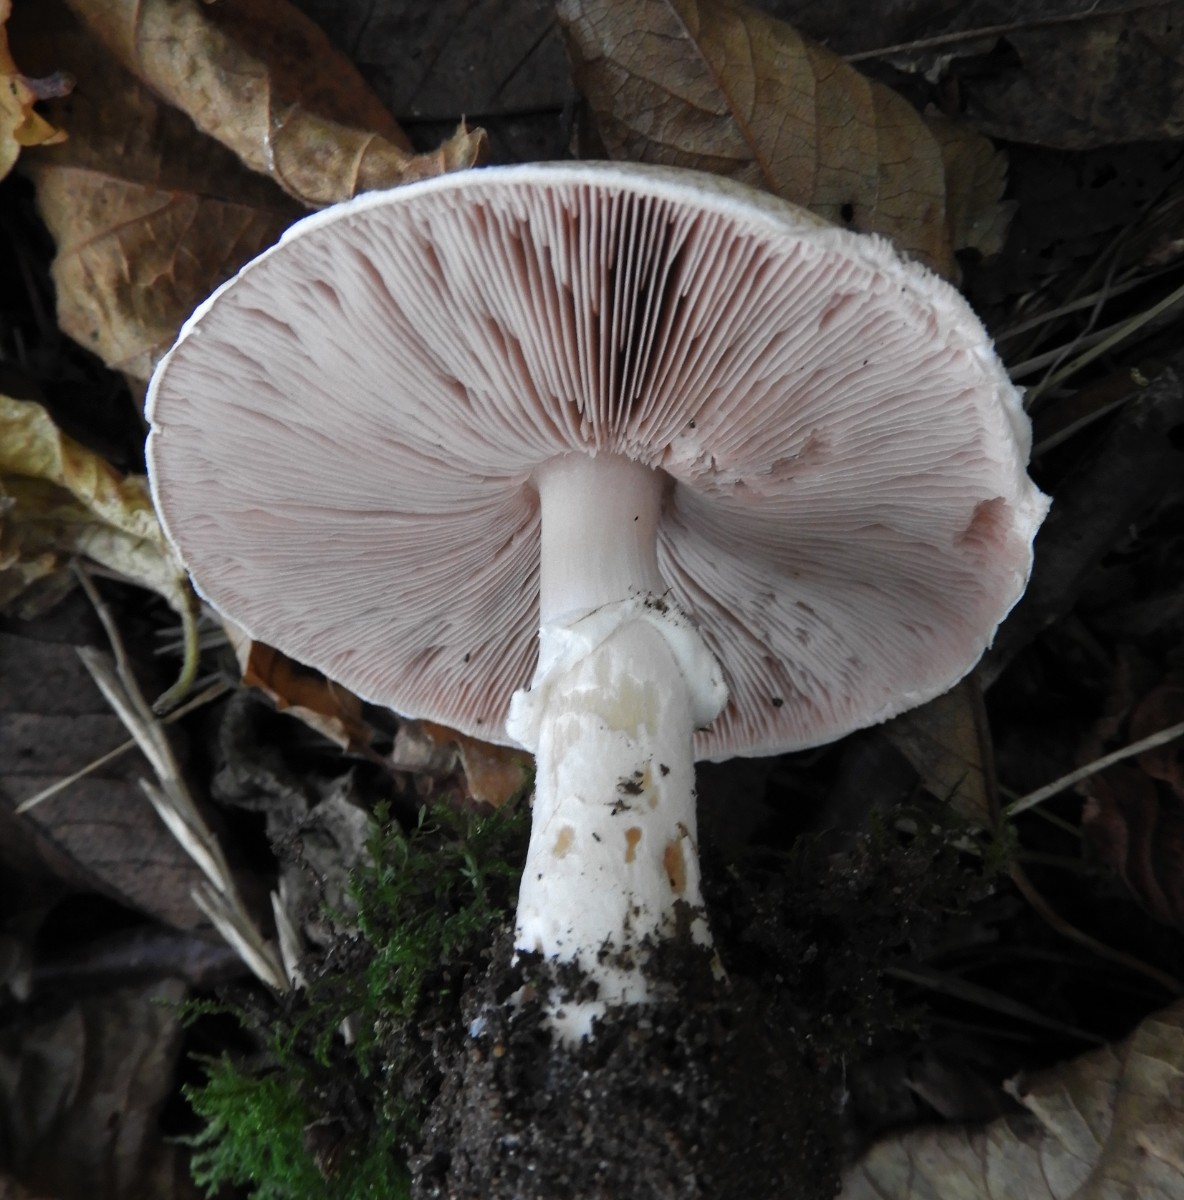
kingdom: Fungi
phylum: Basidiomycota
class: Agaricomycetes
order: Agaricales
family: Agaricaceae
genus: Agaricus
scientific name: Agaricus impudicus
